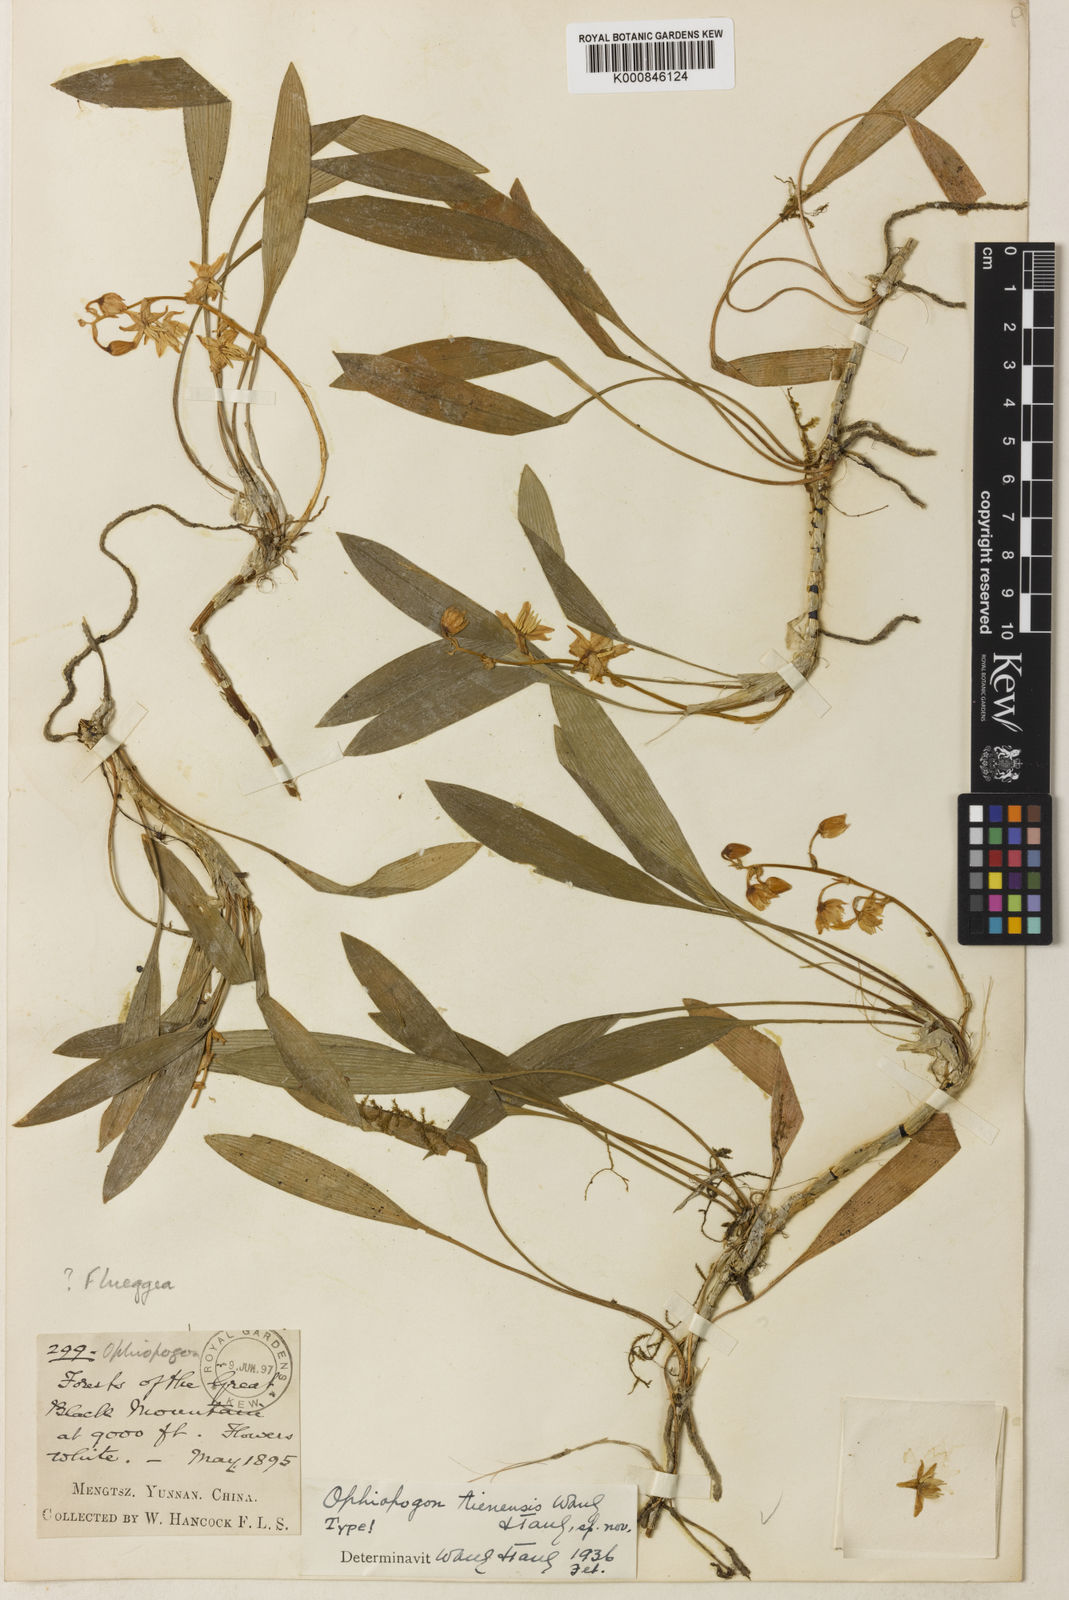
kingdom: Plantae
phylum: Tracheophyta
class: Liliopsida
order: Asparagales
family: Asparagaceae
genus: Ophiopogon
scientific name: Ophiopogon tienensis
